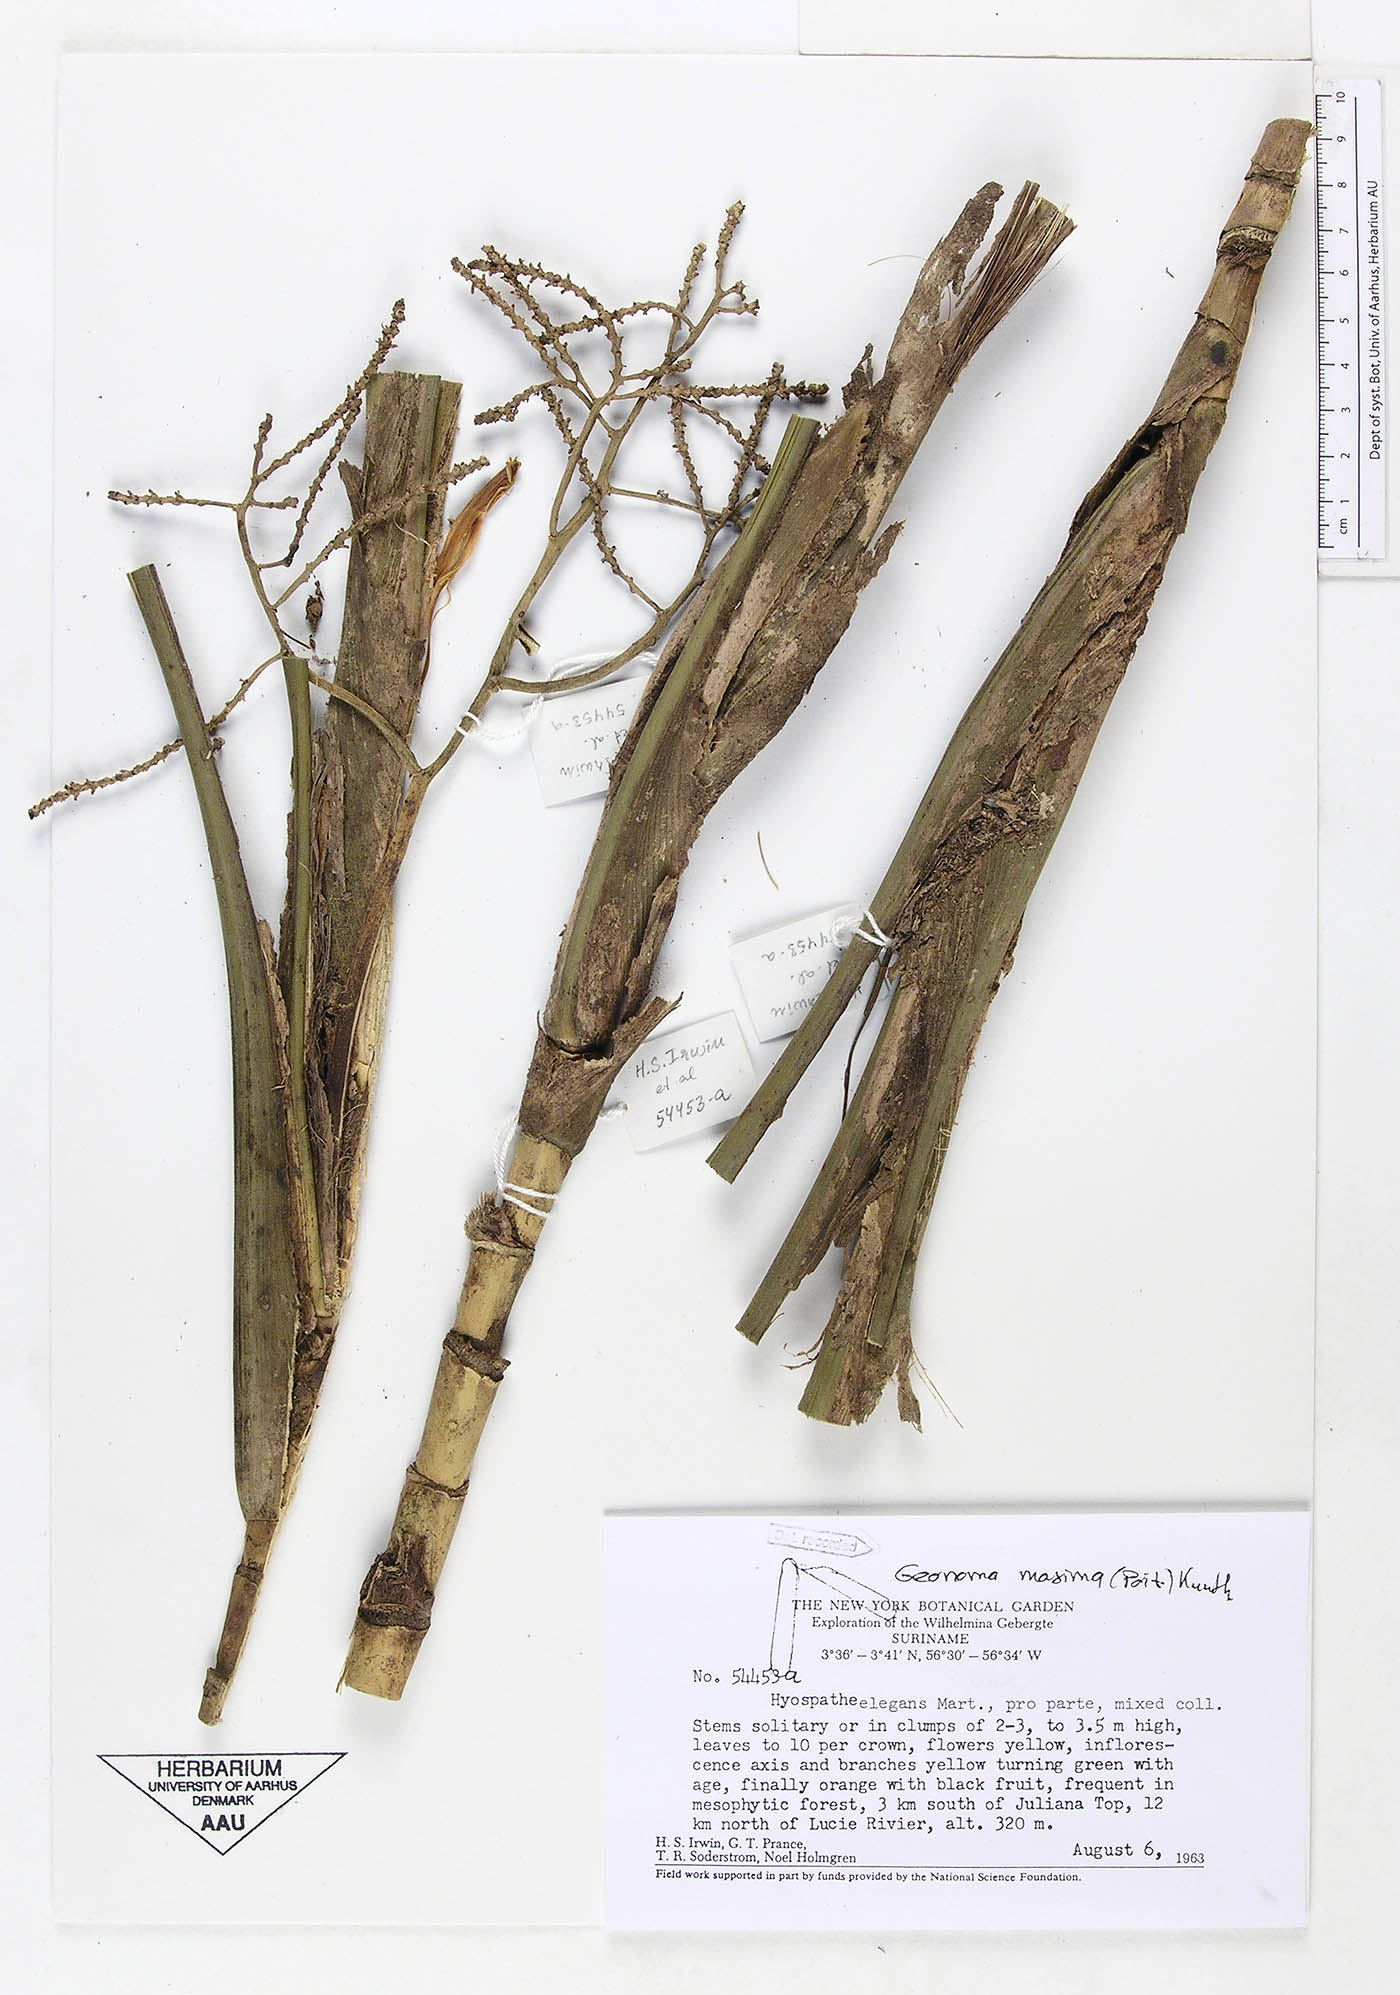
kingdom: Plantae
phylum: Tracheophyta
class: Liliopsida
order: Arecales
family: Arecaceae
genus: Geonoma
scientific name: Geonoma maxima
